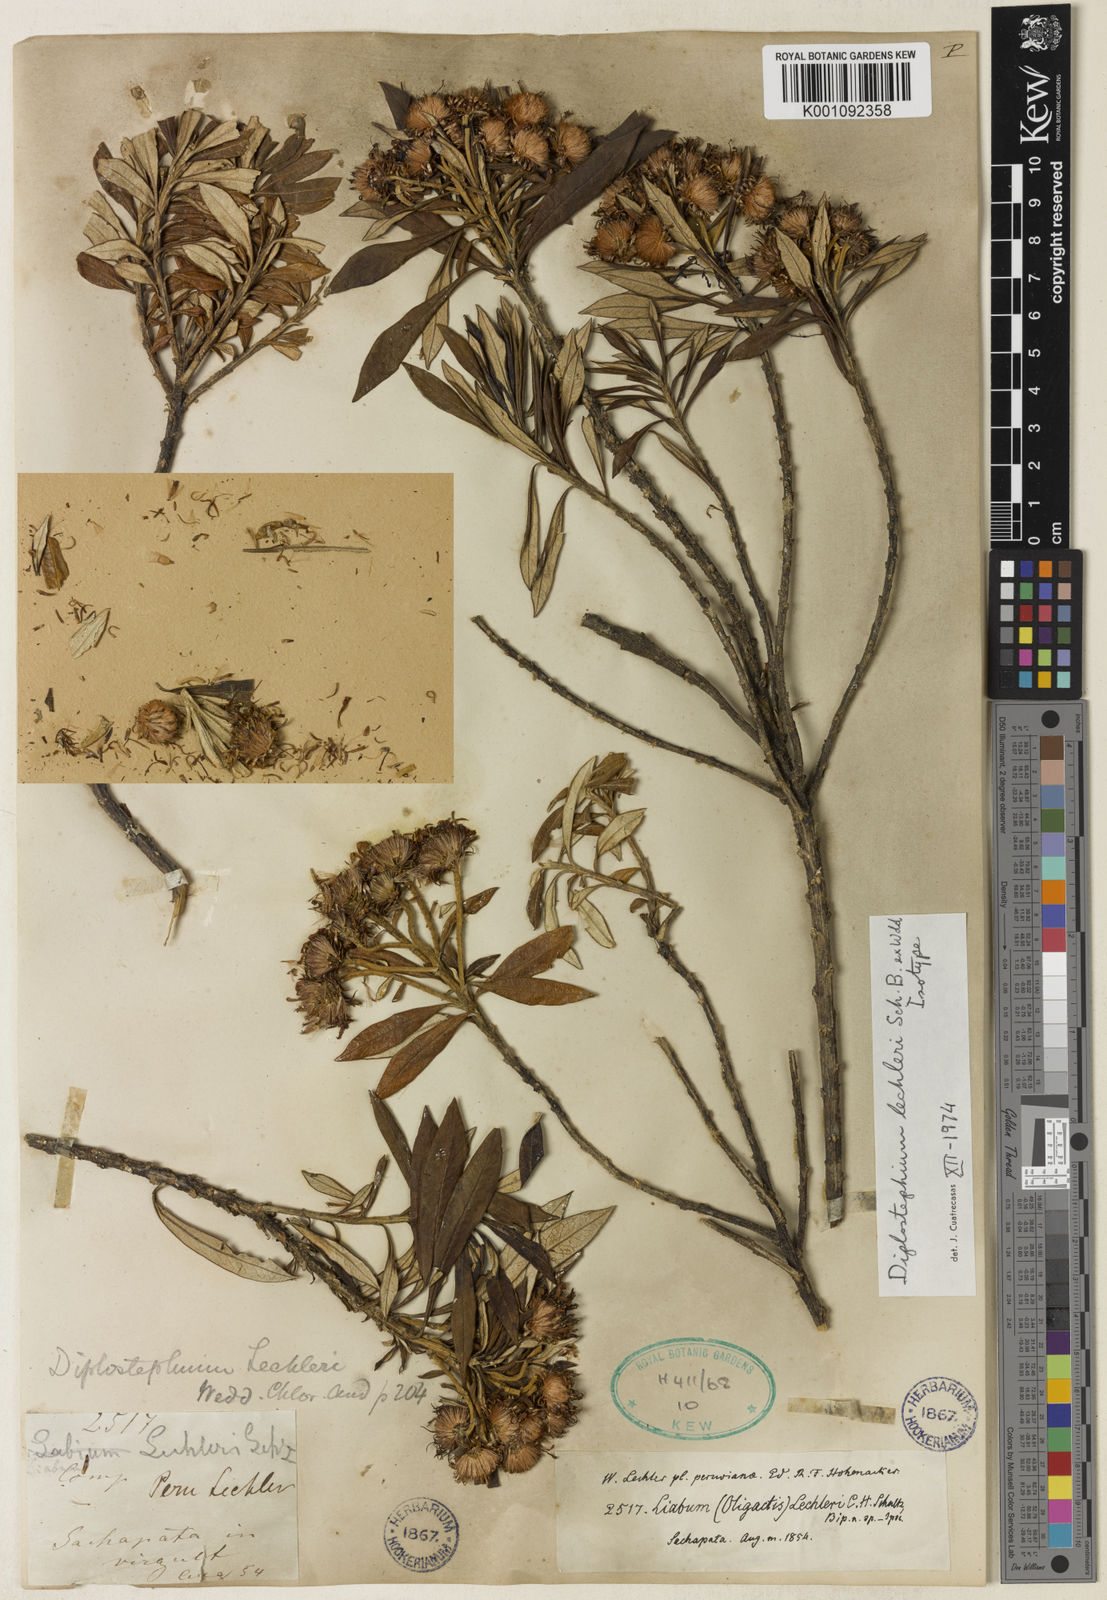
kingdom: Plantae
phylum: Tracheophyta
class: Magnoliopsida
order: Asterales
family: Asteraceae
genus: Diplostephium
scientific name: Diplostephium lechleri
